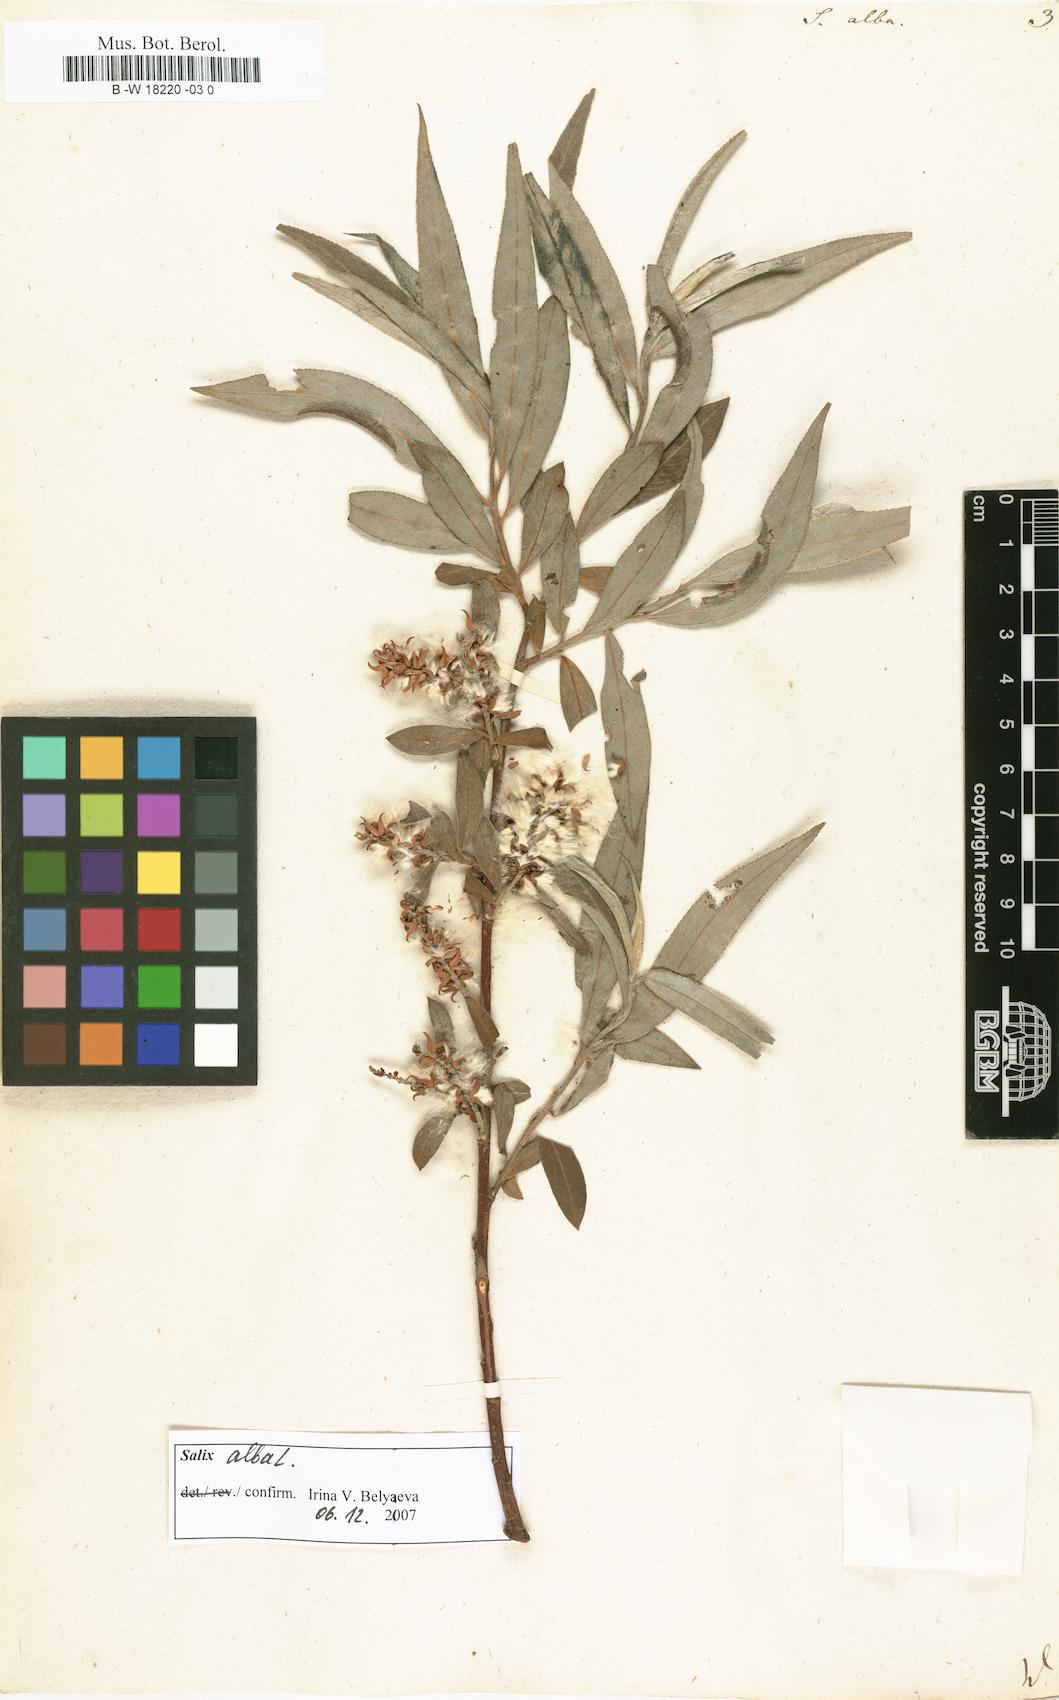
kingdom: Plantae
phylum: Tracheophyta
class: Magnoliopsida
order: Malpighiales
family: Salicaceae
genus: Salix
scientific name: Salix alba
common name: White willow
